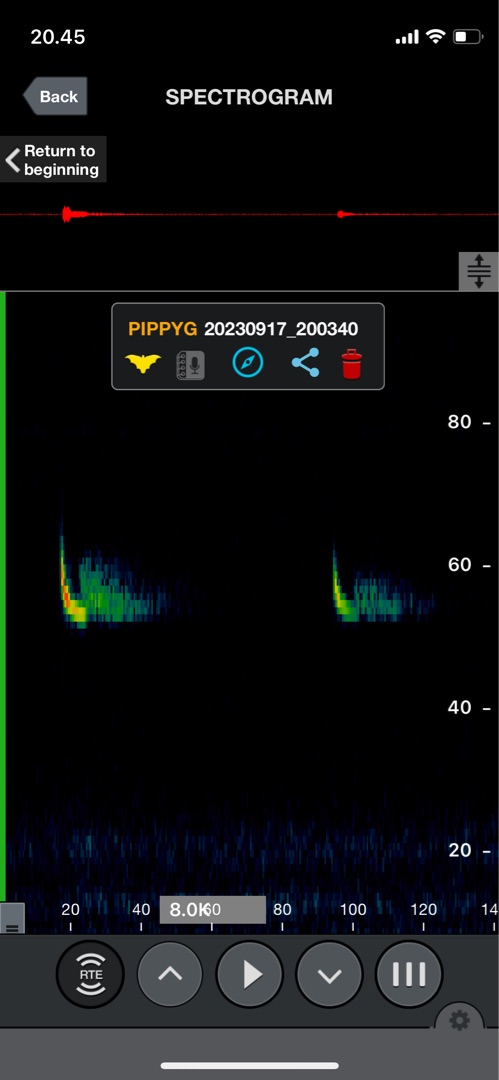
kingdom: Animalia
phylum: Chordata
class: Mammalia
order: Chiroptera
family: Vespertilionidae
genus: Pipistrellus
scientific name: Pipistrellus pygmaeus
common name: Dværgflagermus
